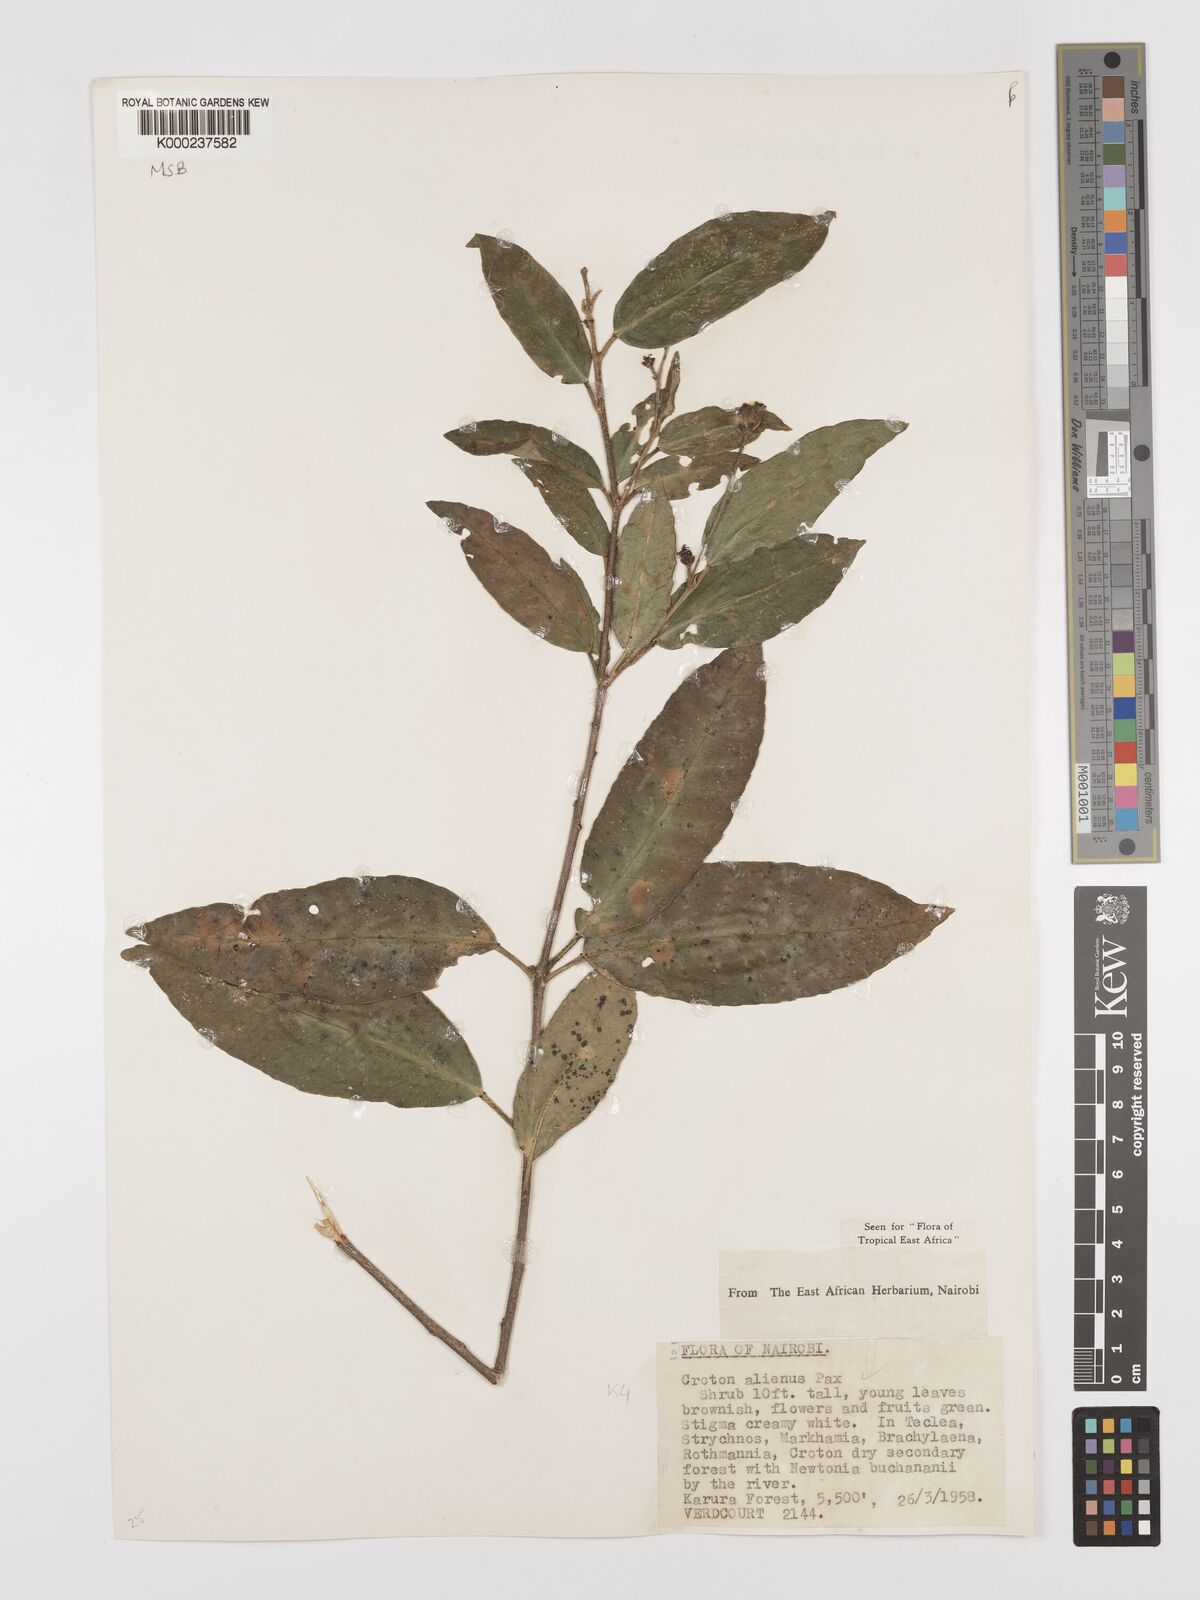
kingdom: Plantae
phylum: Tracheophyta
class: Magnoliopsida
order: Malpighiales
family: Euphorbiaceae
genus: Croton
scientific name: Croton alienus
